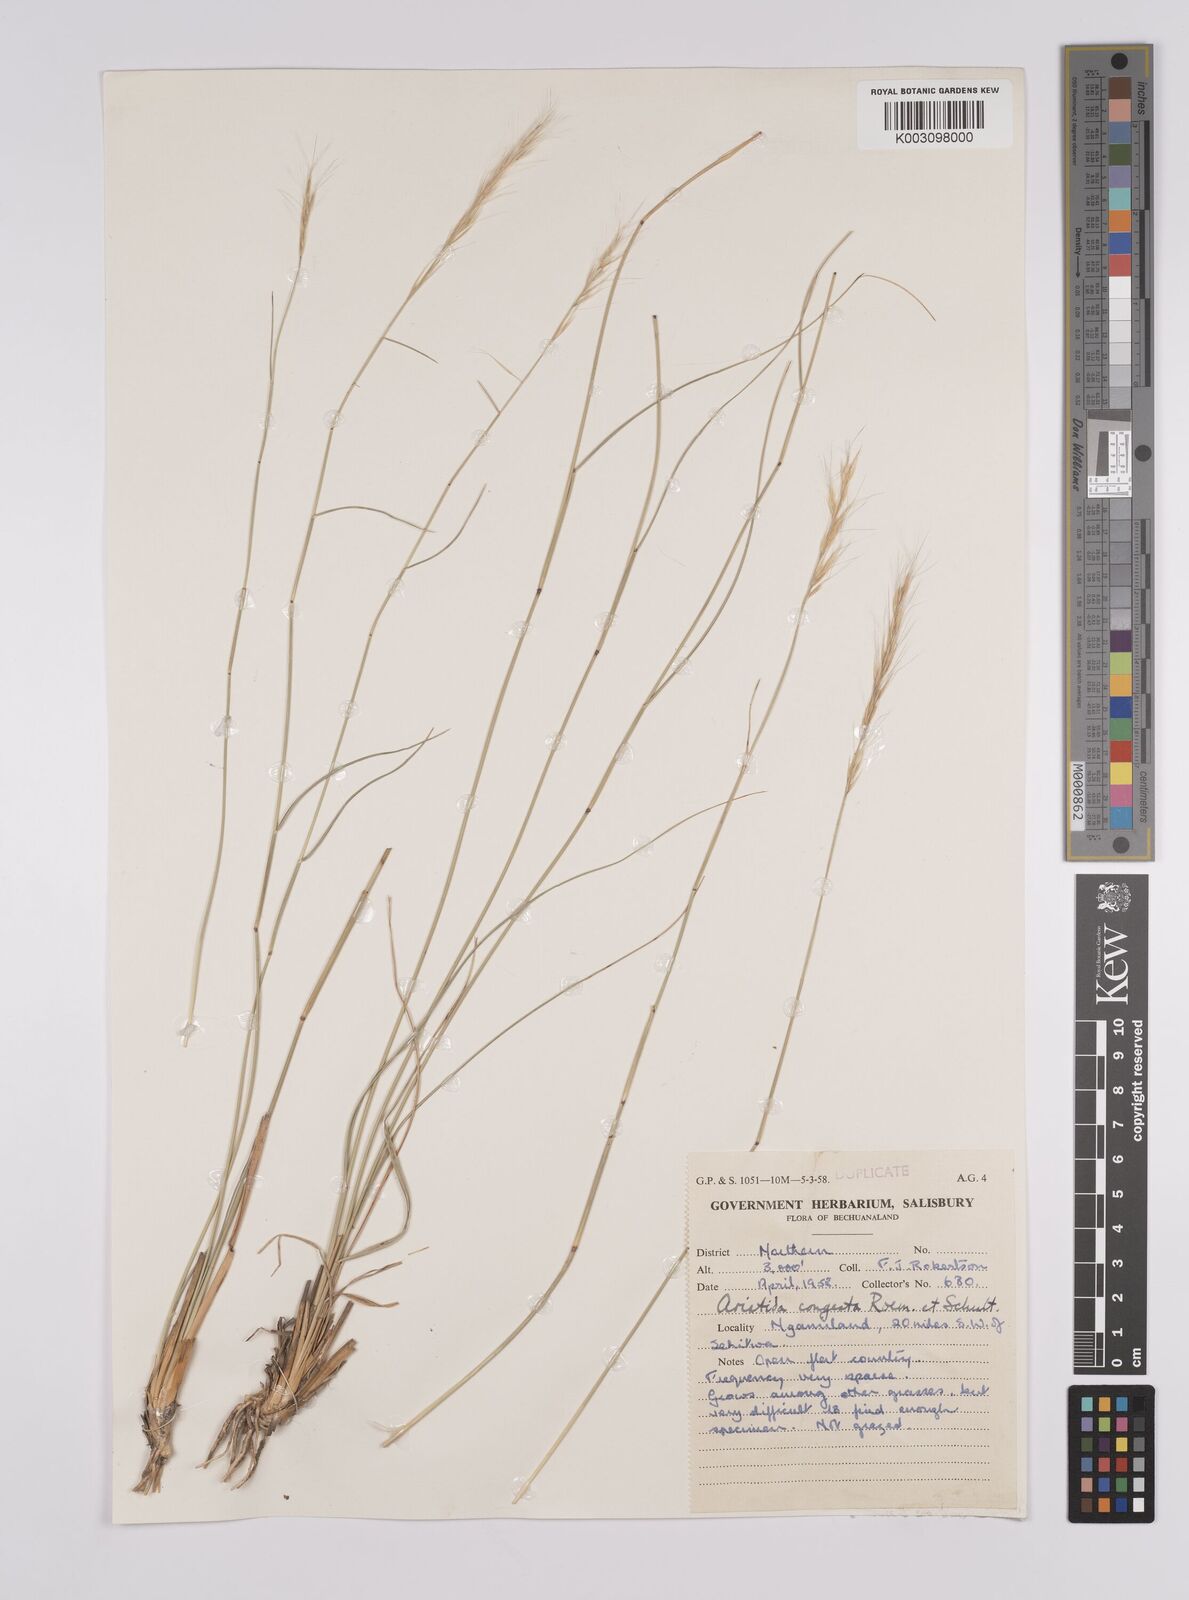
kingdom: Plantae
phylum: Tracheophyta
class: Liliopsida
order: Poales
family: Poaceae
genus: Aristida
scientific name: Aristida congesta
